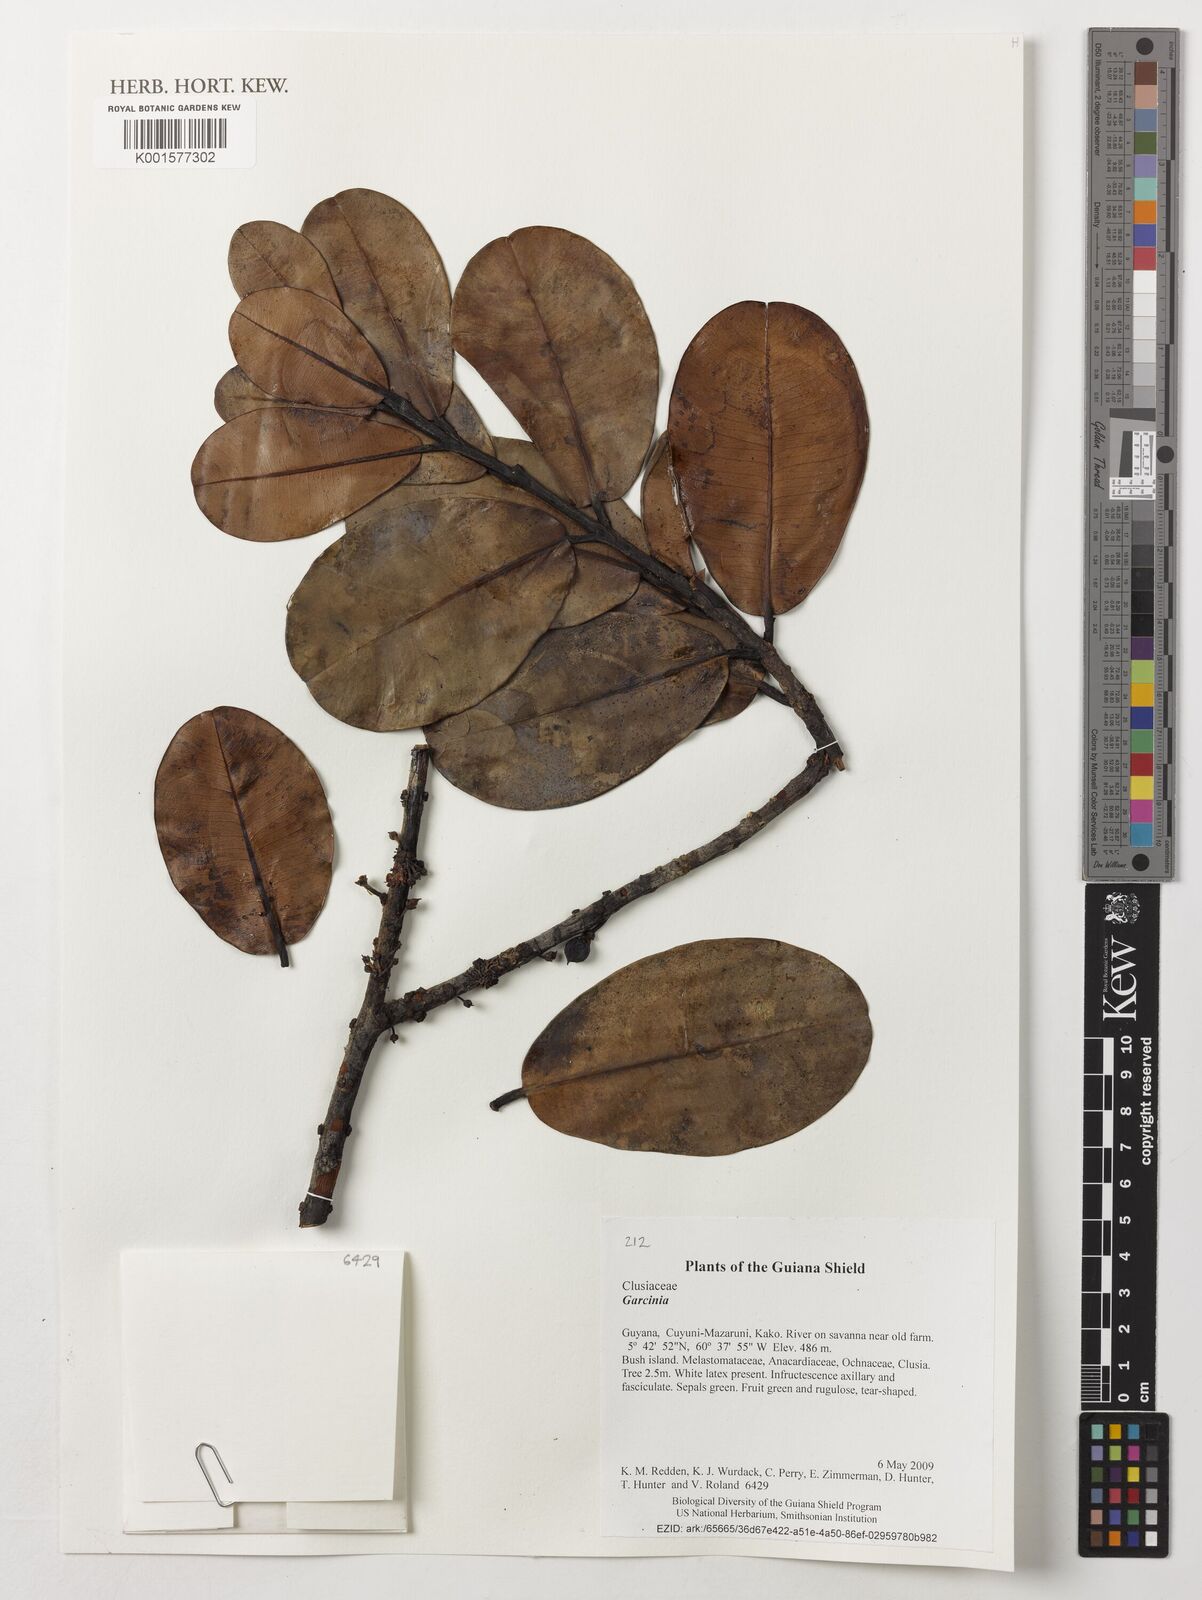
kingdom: Plantae
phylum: Tracheophyta
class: Magnoliopsida
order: Malpighiales
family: Clusiaceae
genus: Garcinia
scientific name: Garcinia
